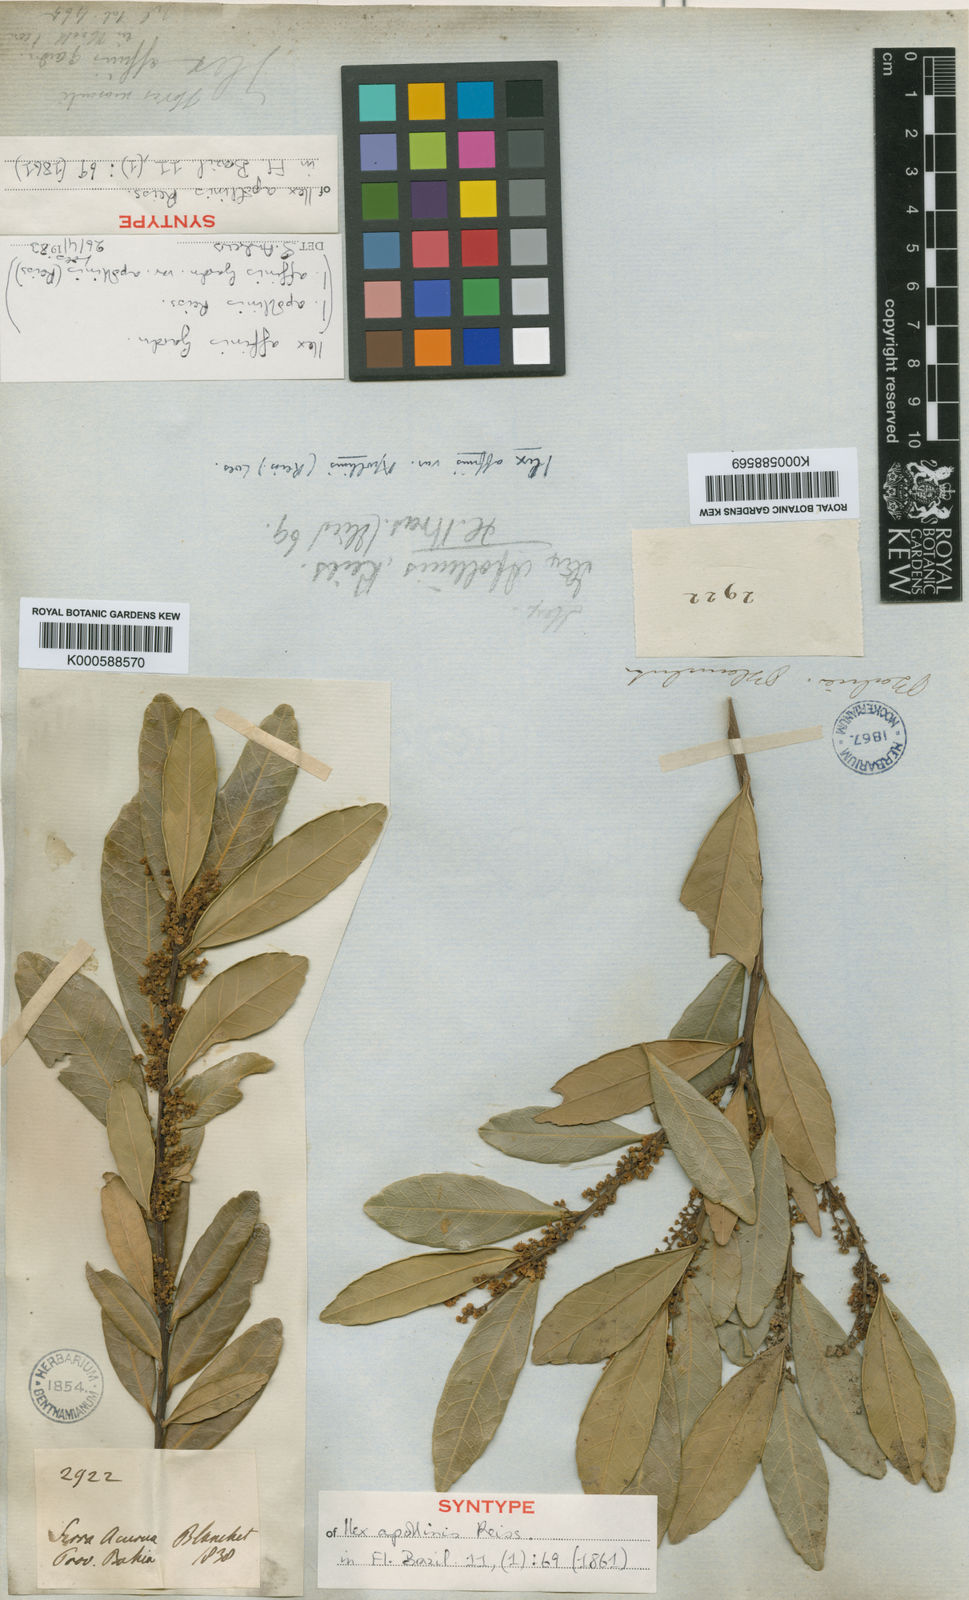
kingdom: Plantae
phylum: Tracheophyta
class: Magnoliopsida
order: Aquifoliales
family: Aquifoliaceae
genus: Ilex
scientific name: Ilex affinis
